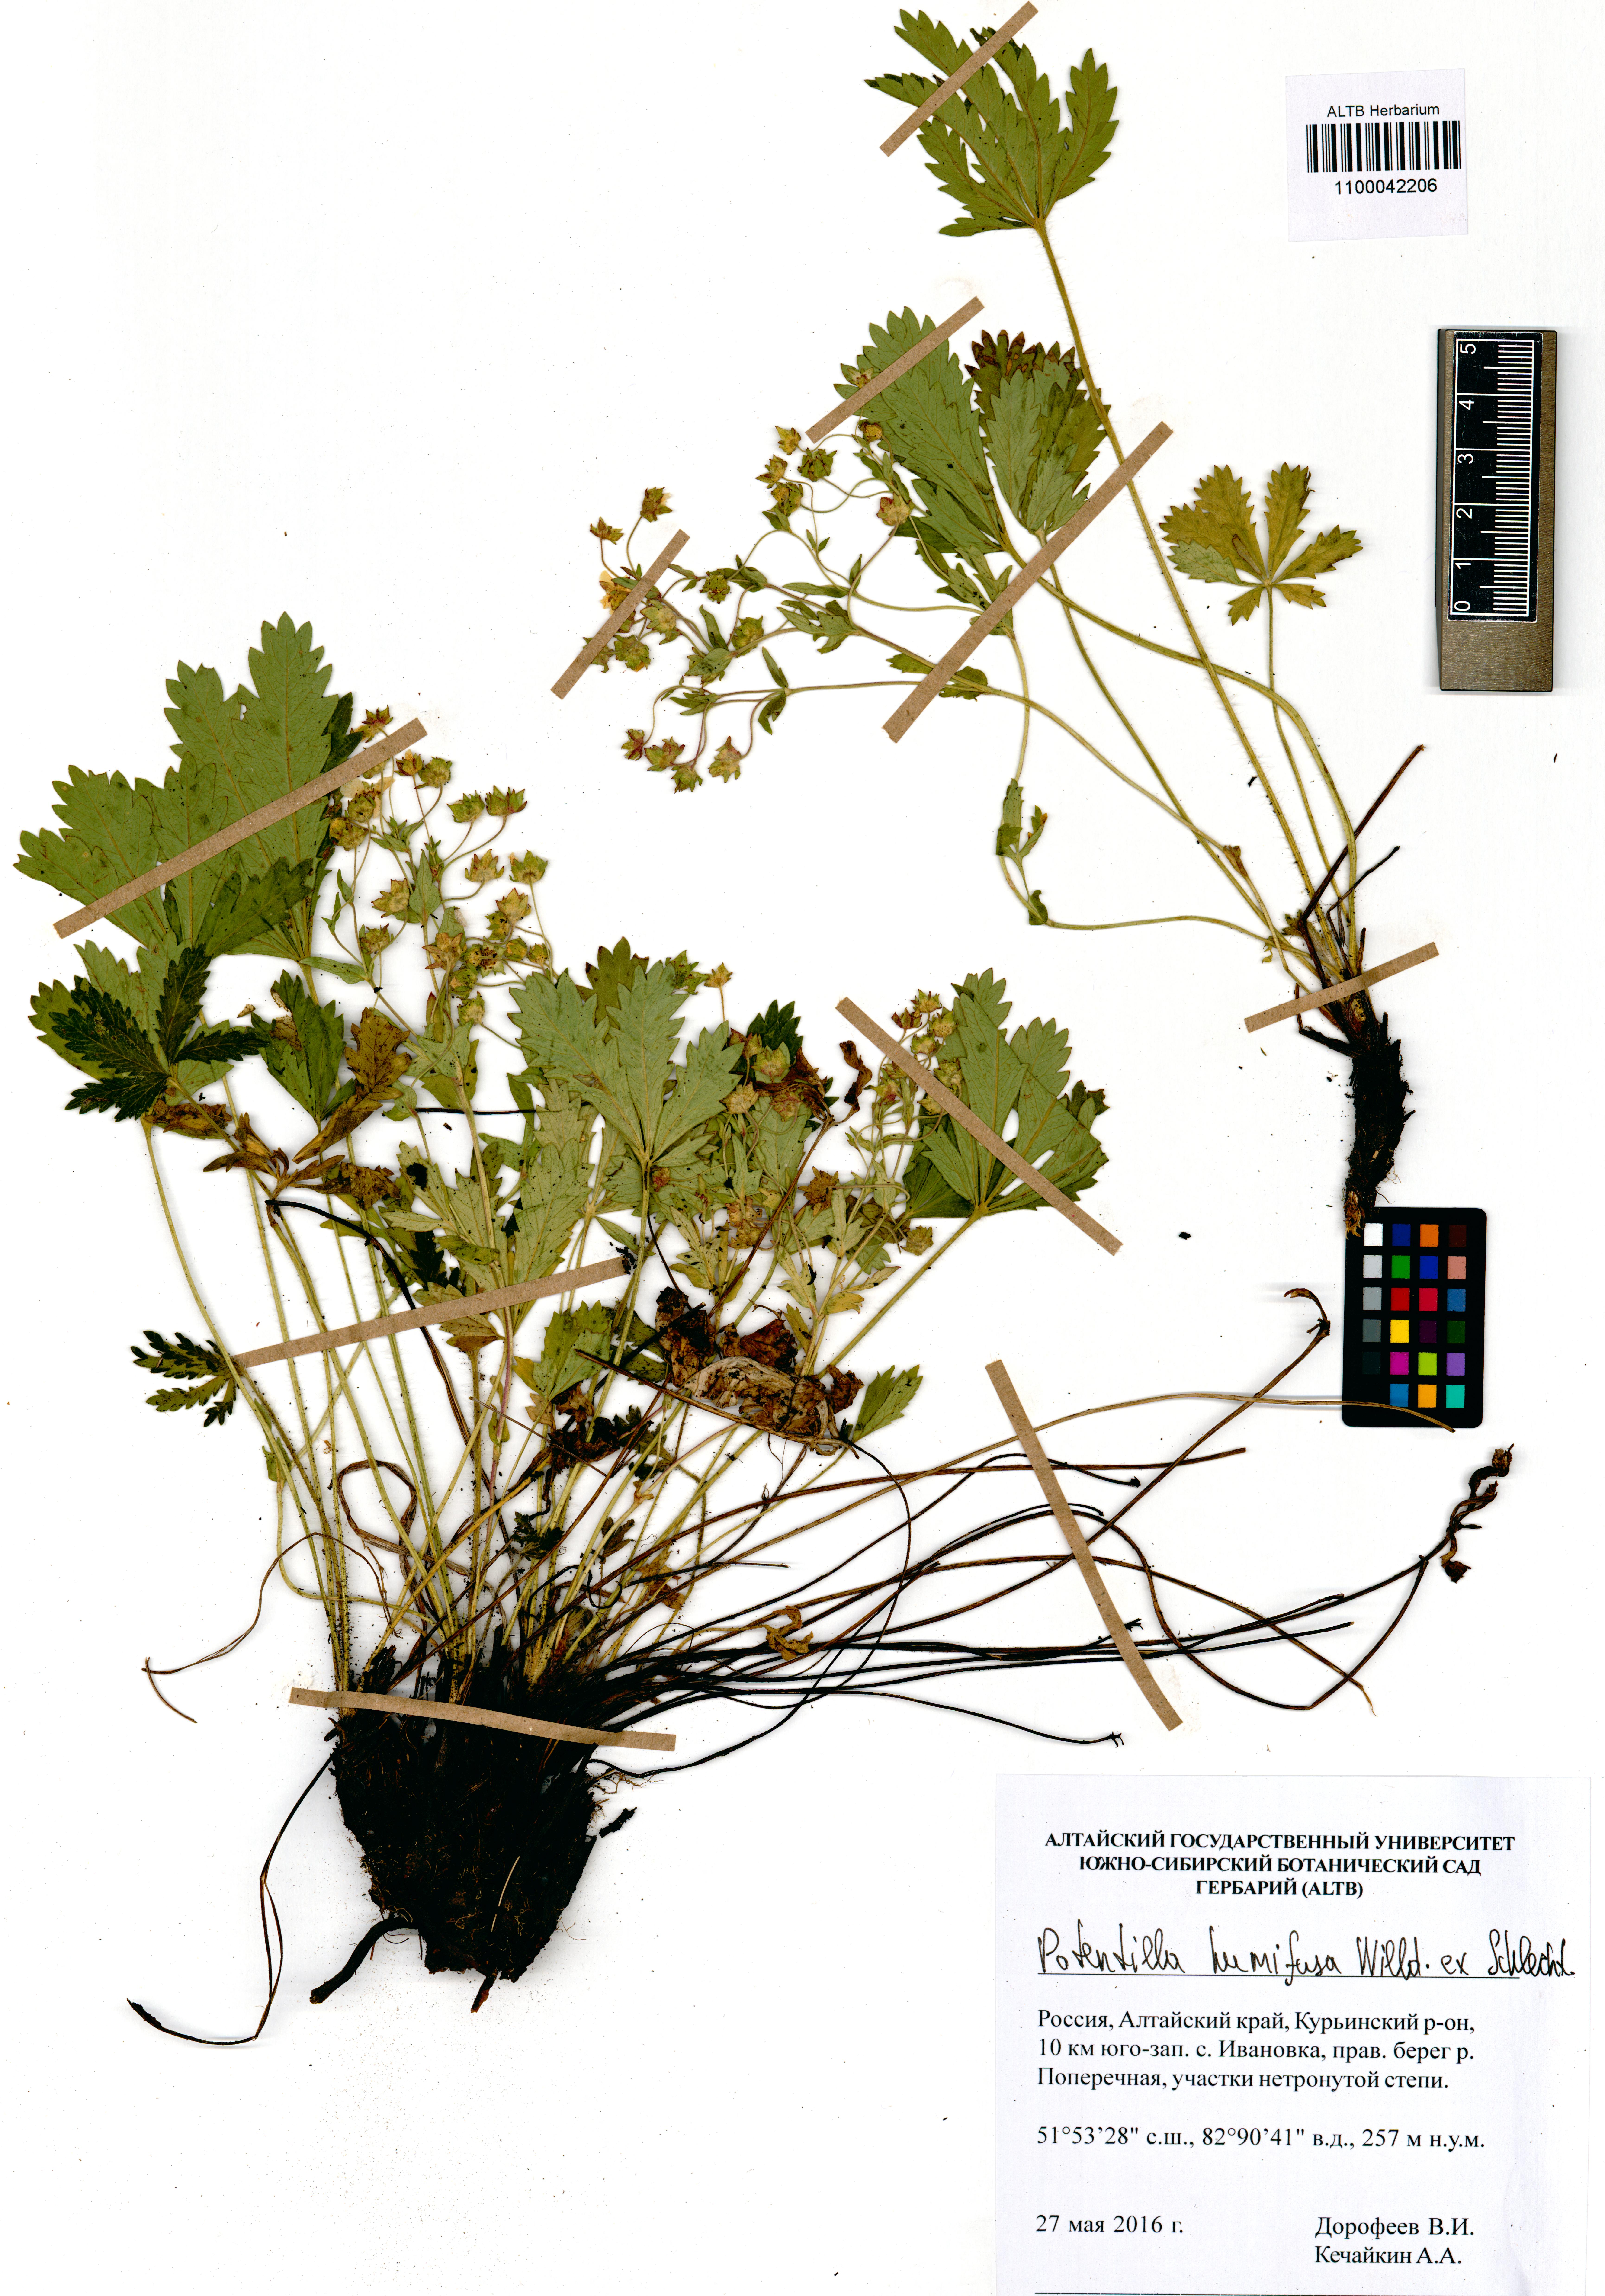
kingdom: Plantae
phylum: Tracheophyta
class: Magnoliopsida
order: Rosales
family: Rosaceae
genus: Potentilla
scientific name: Potentilla humifusa
